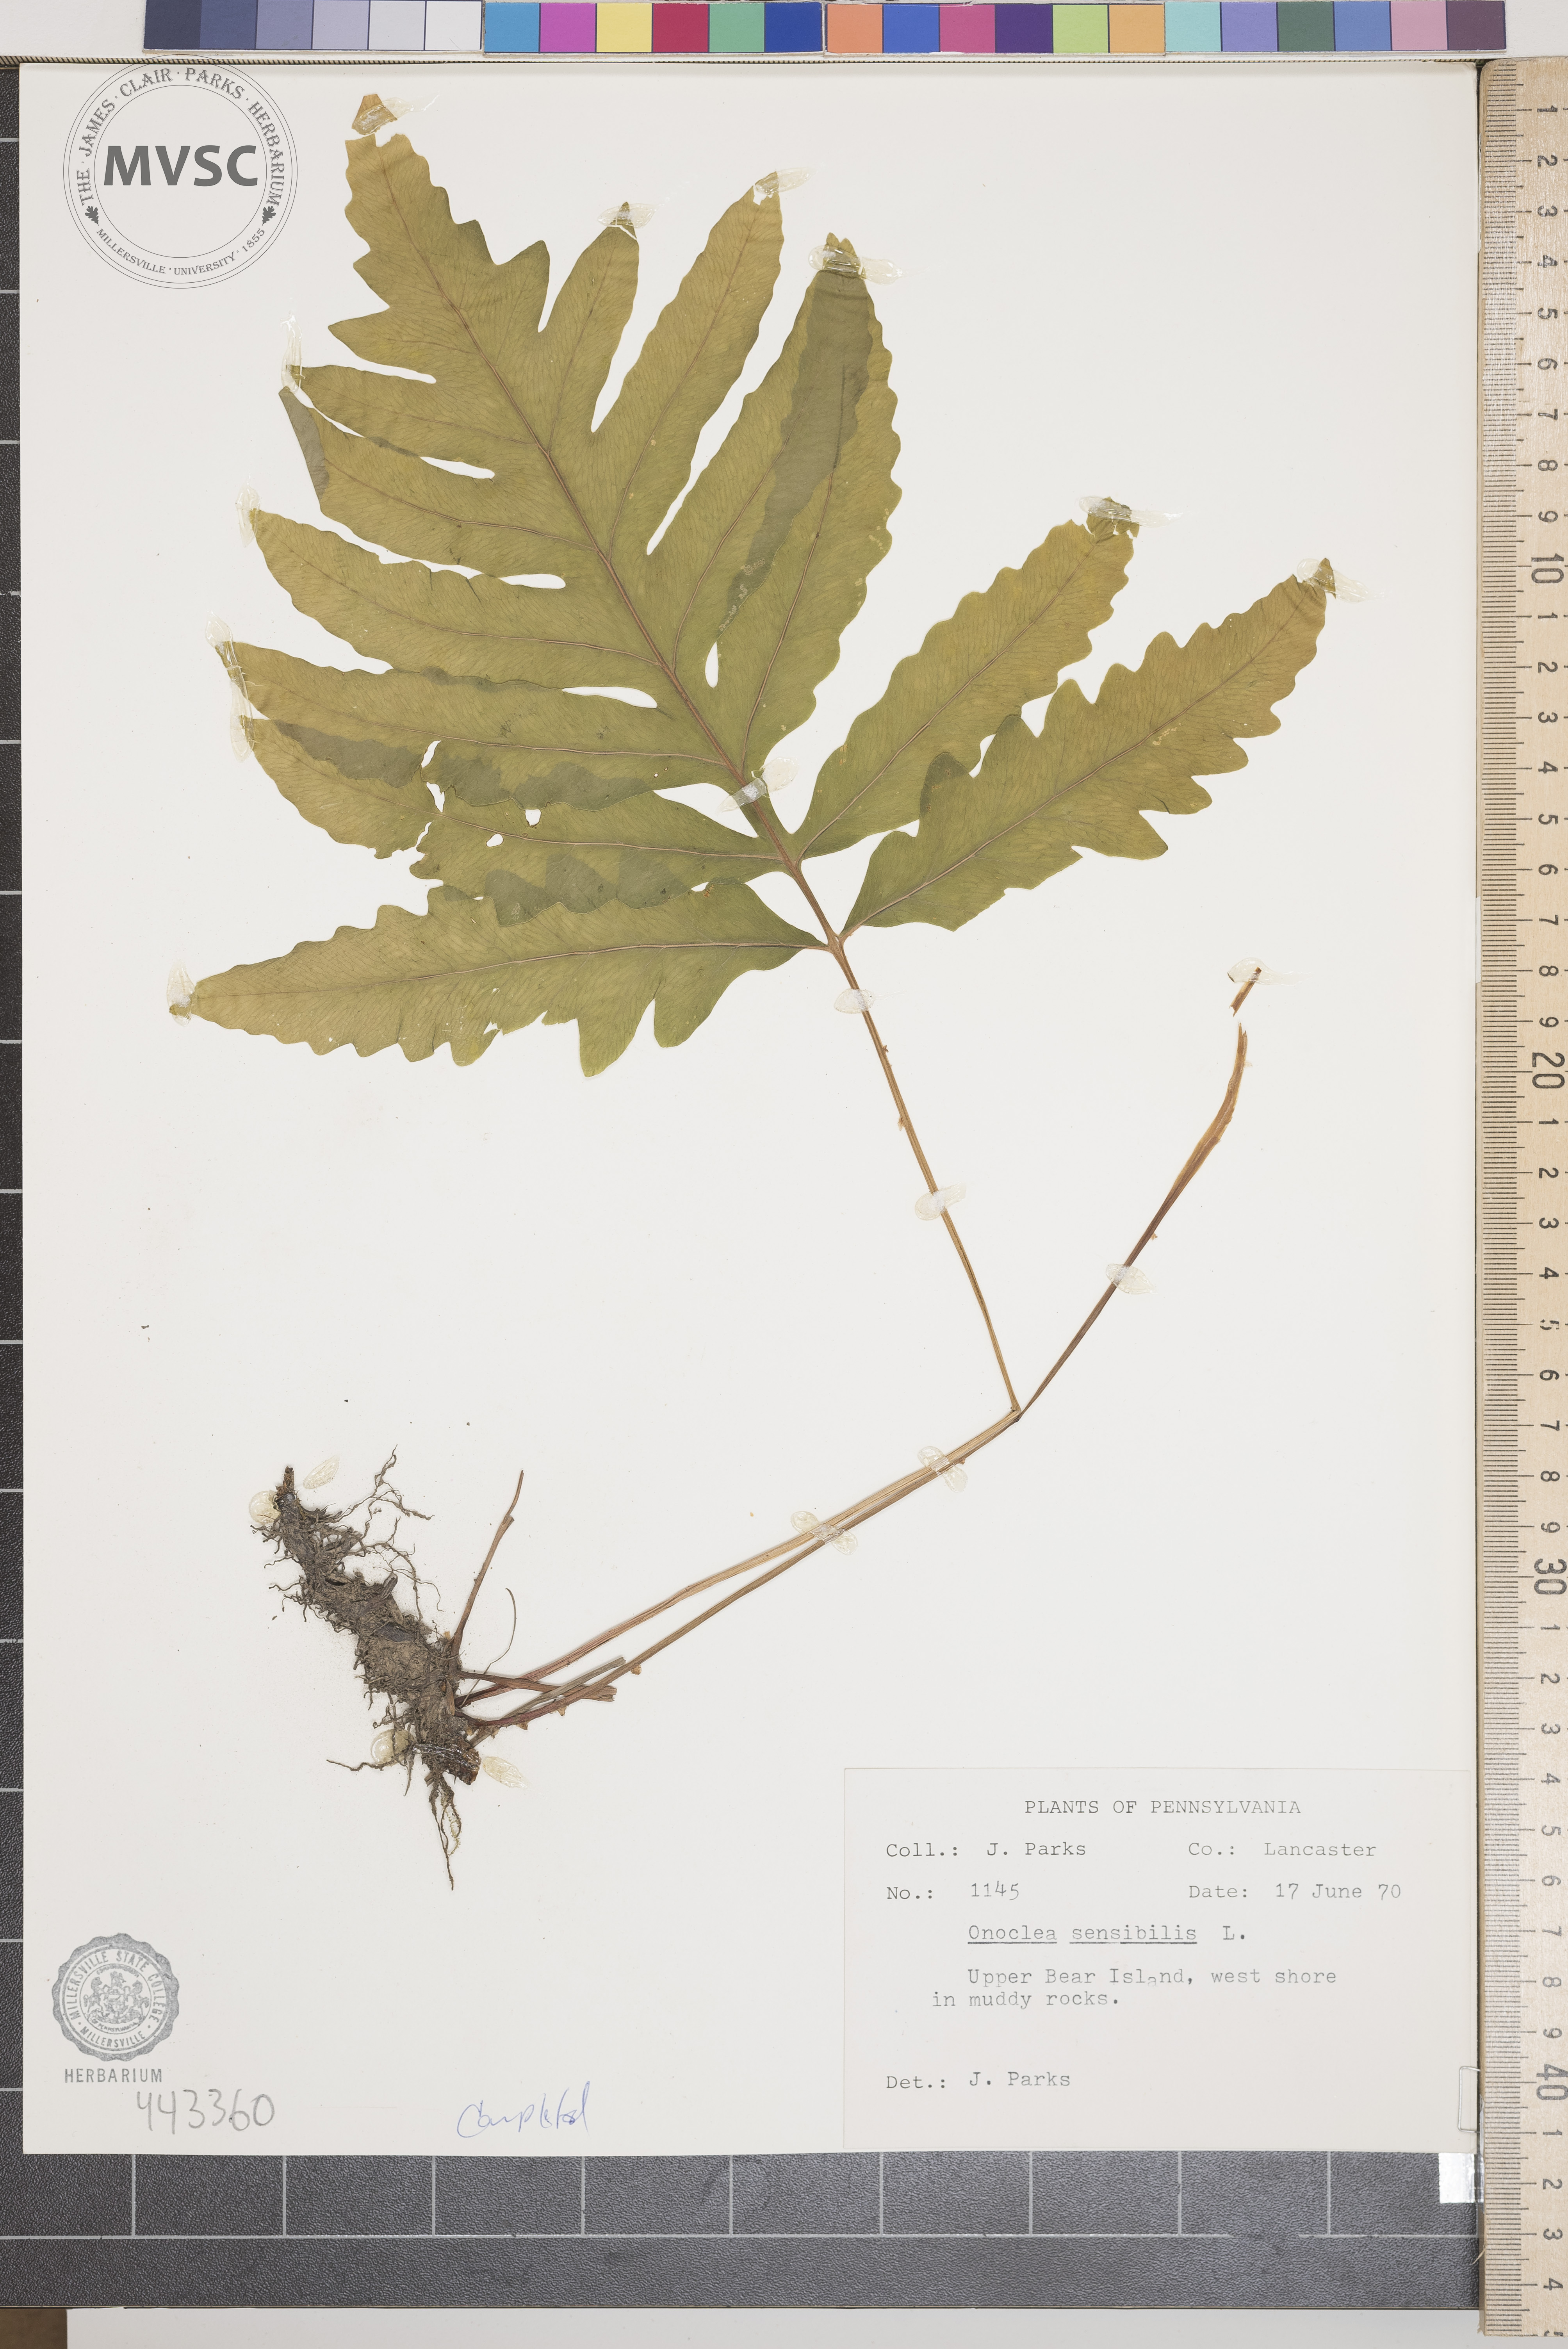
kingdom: Plantae
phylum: Tracheophyta
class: Polypodiopsida
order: Polypodiales
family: Onocleaceae
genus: Onoclea
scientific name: Onoclea sensibilis
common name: Sensitive fern
